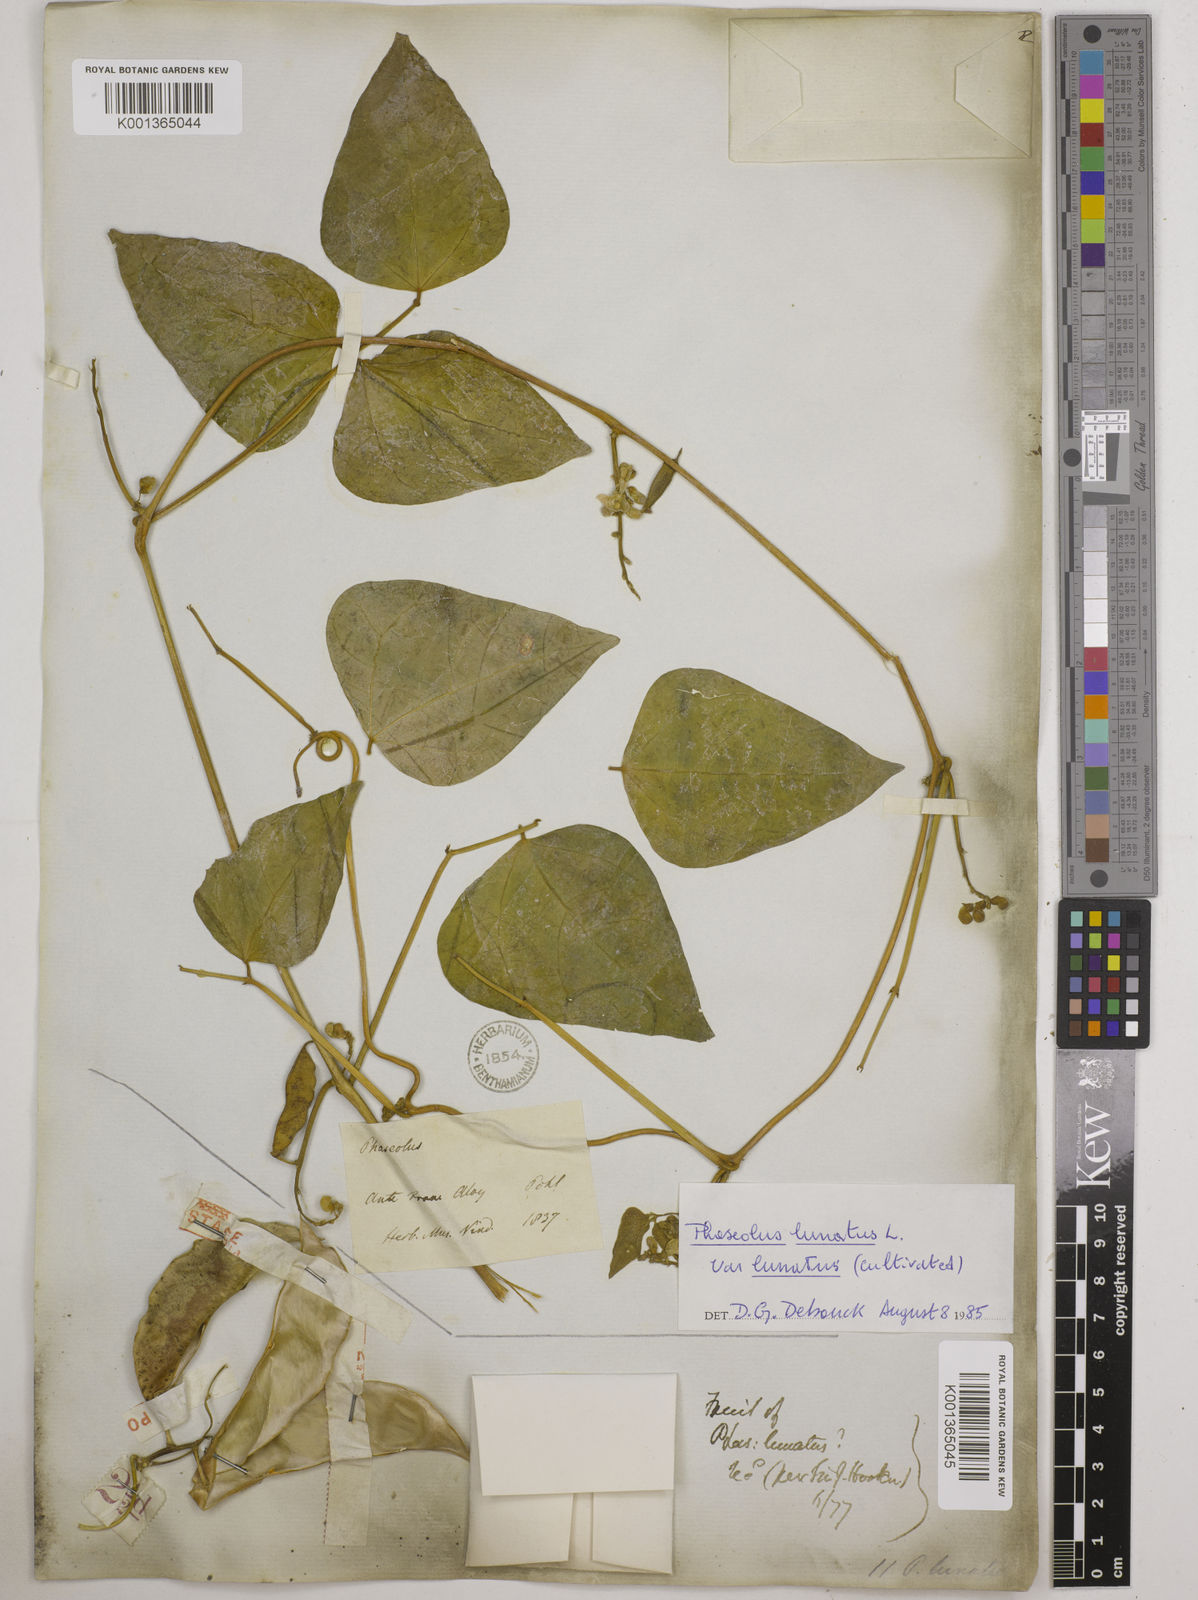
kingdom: Plantae
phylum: Tracheophyta
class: Magnoliopsida
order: Fabales
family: Fabaceae
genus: Phaseolus
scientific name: Phaseolus
